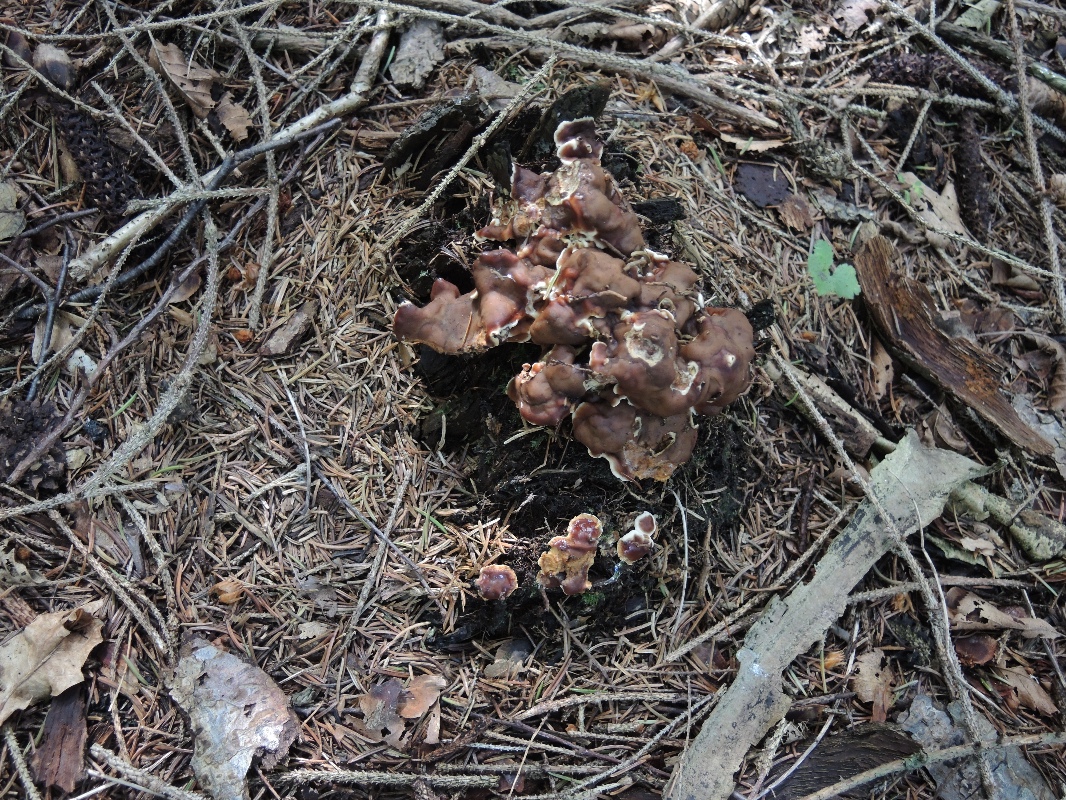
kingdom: Fungi
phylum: Ascomycota
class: Pezizomycetes
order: Pezizales
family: Rhizinaceae
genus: Rhizina
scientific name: Rhizina undulata
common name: rodmorkel
